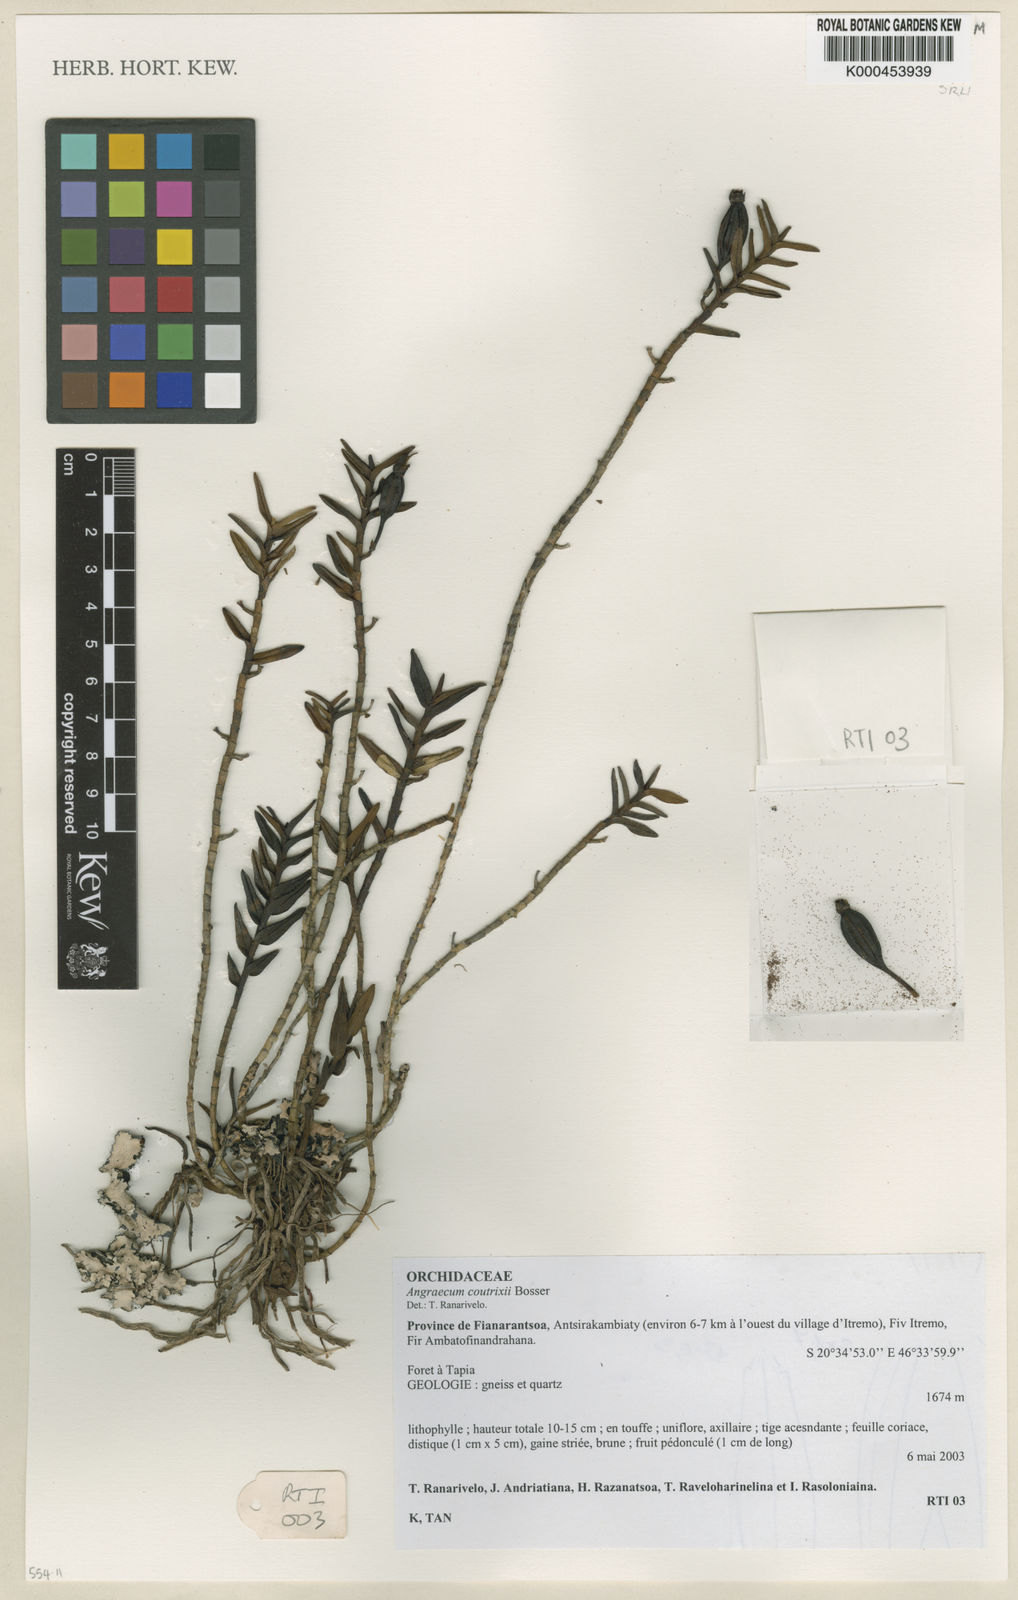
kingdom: Plantae
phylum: Tracheophyta
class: Liliopsida
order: Asparagales
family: Orchidaceae
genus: Angraecum
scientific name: Angraecum coutrixii
